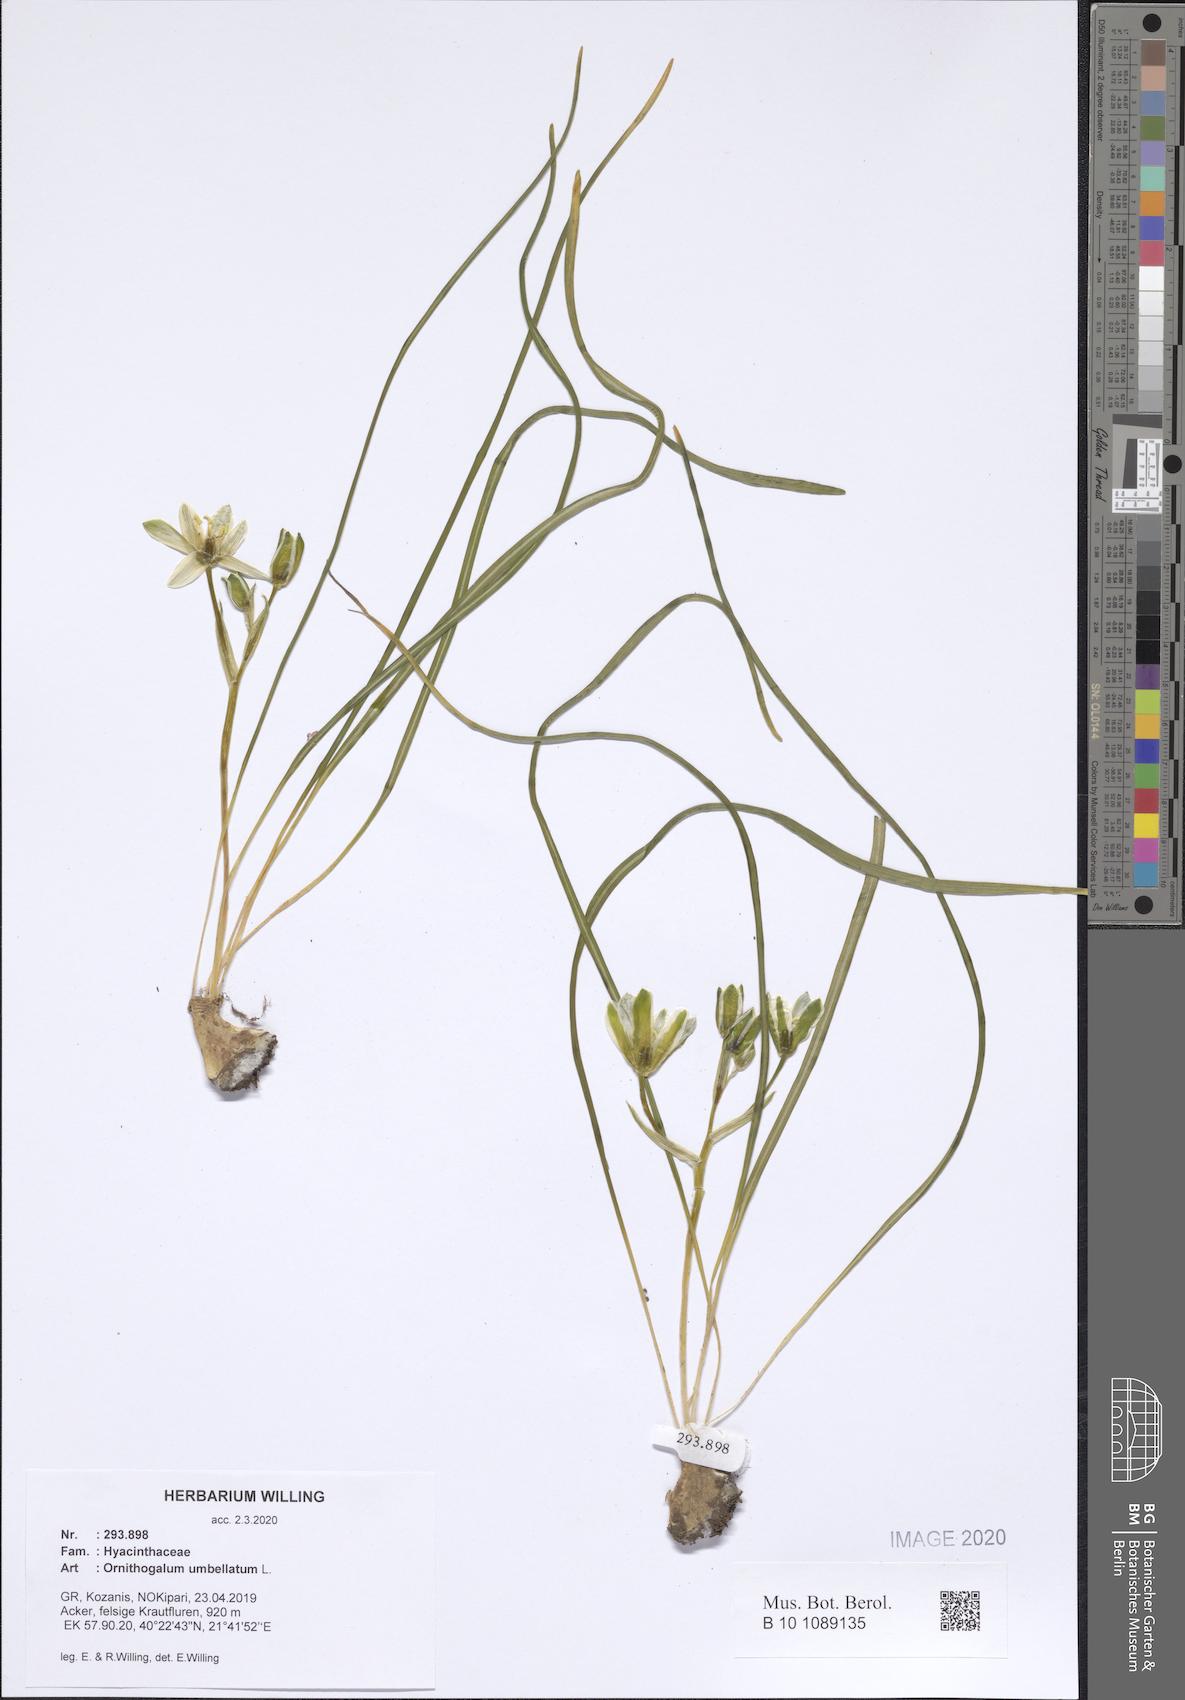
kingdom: Plantae
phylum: Tracheophyta
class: Liliopsida
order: Asparagales
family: Asparagaceae
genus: Ornithogalum
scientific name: Ornithogalum umbellatum
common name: Garden star-of-bethlehem
